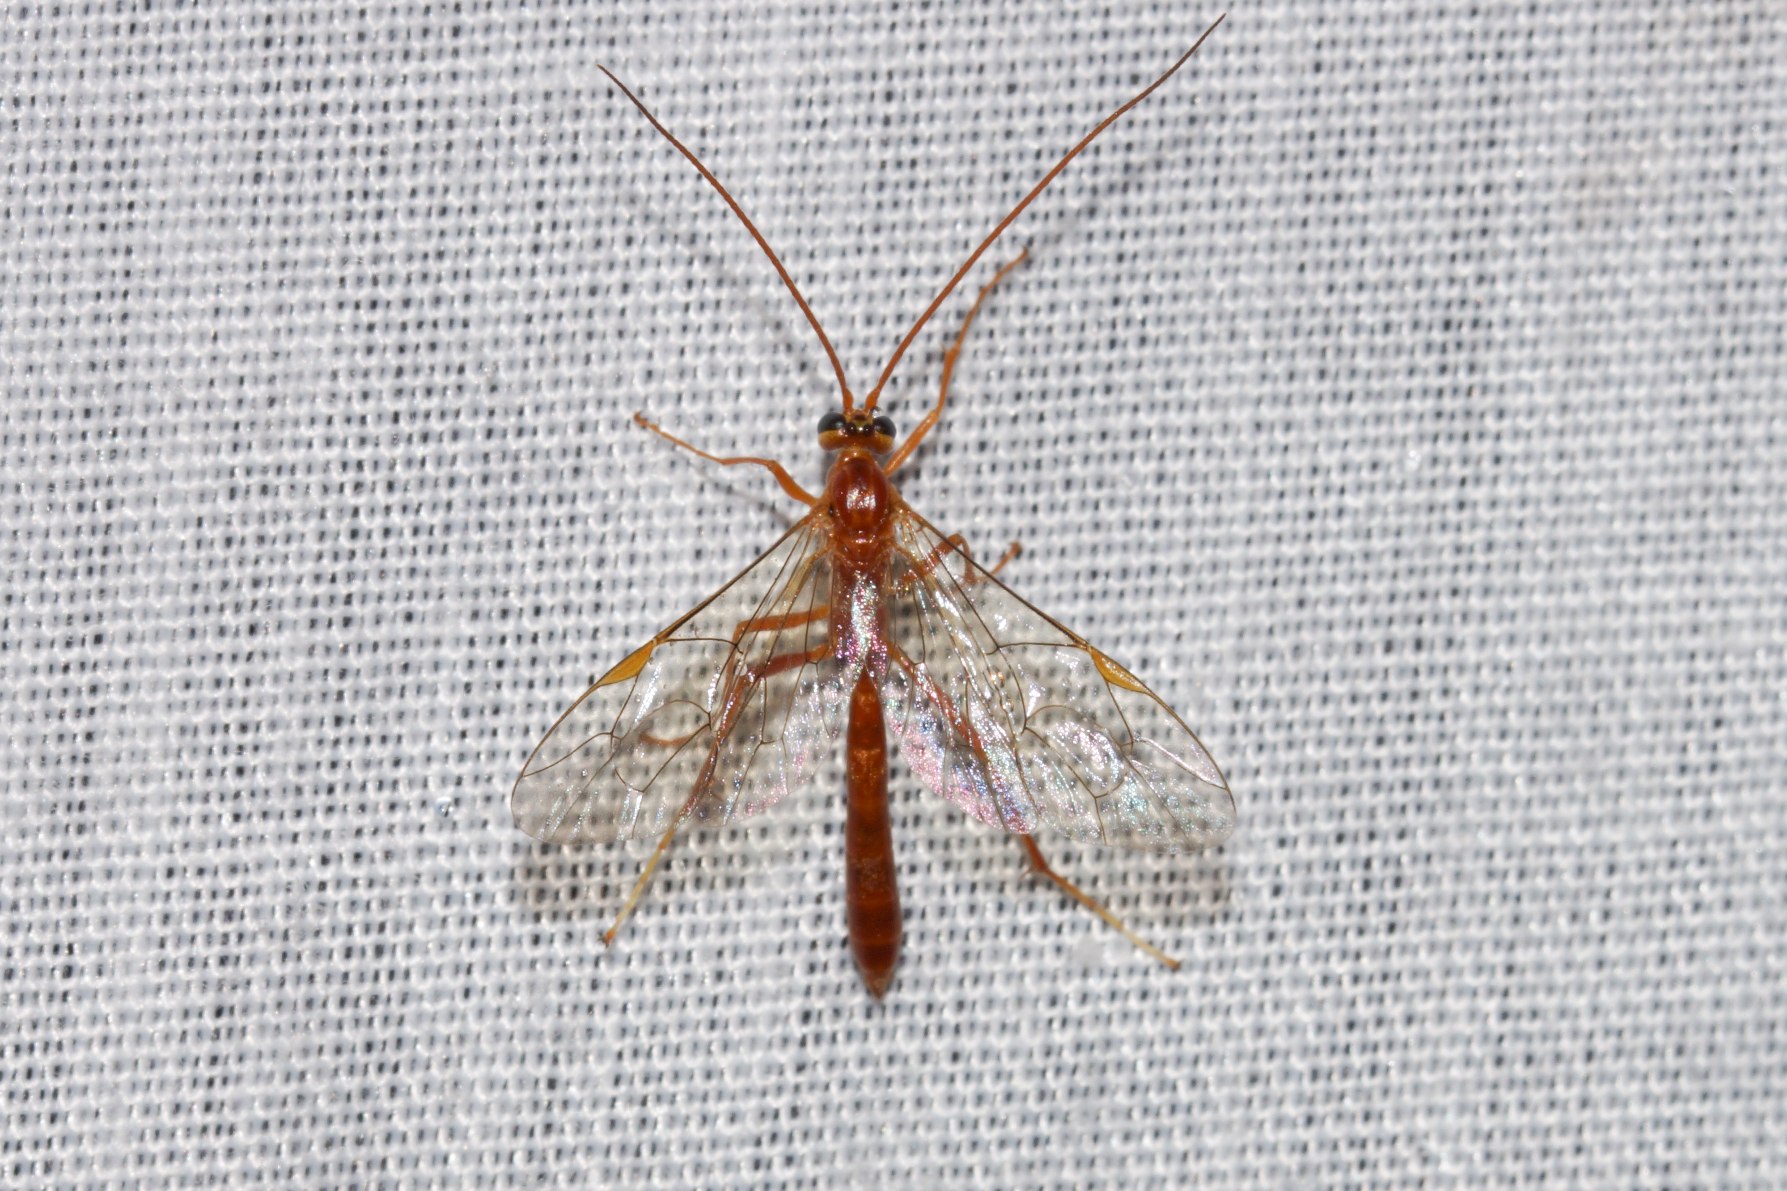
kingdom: Animalia
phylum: Arthropoda
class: Insecta
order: Hymenoptera
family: Ichneumonidae
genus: Netelia
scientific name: Netelia
